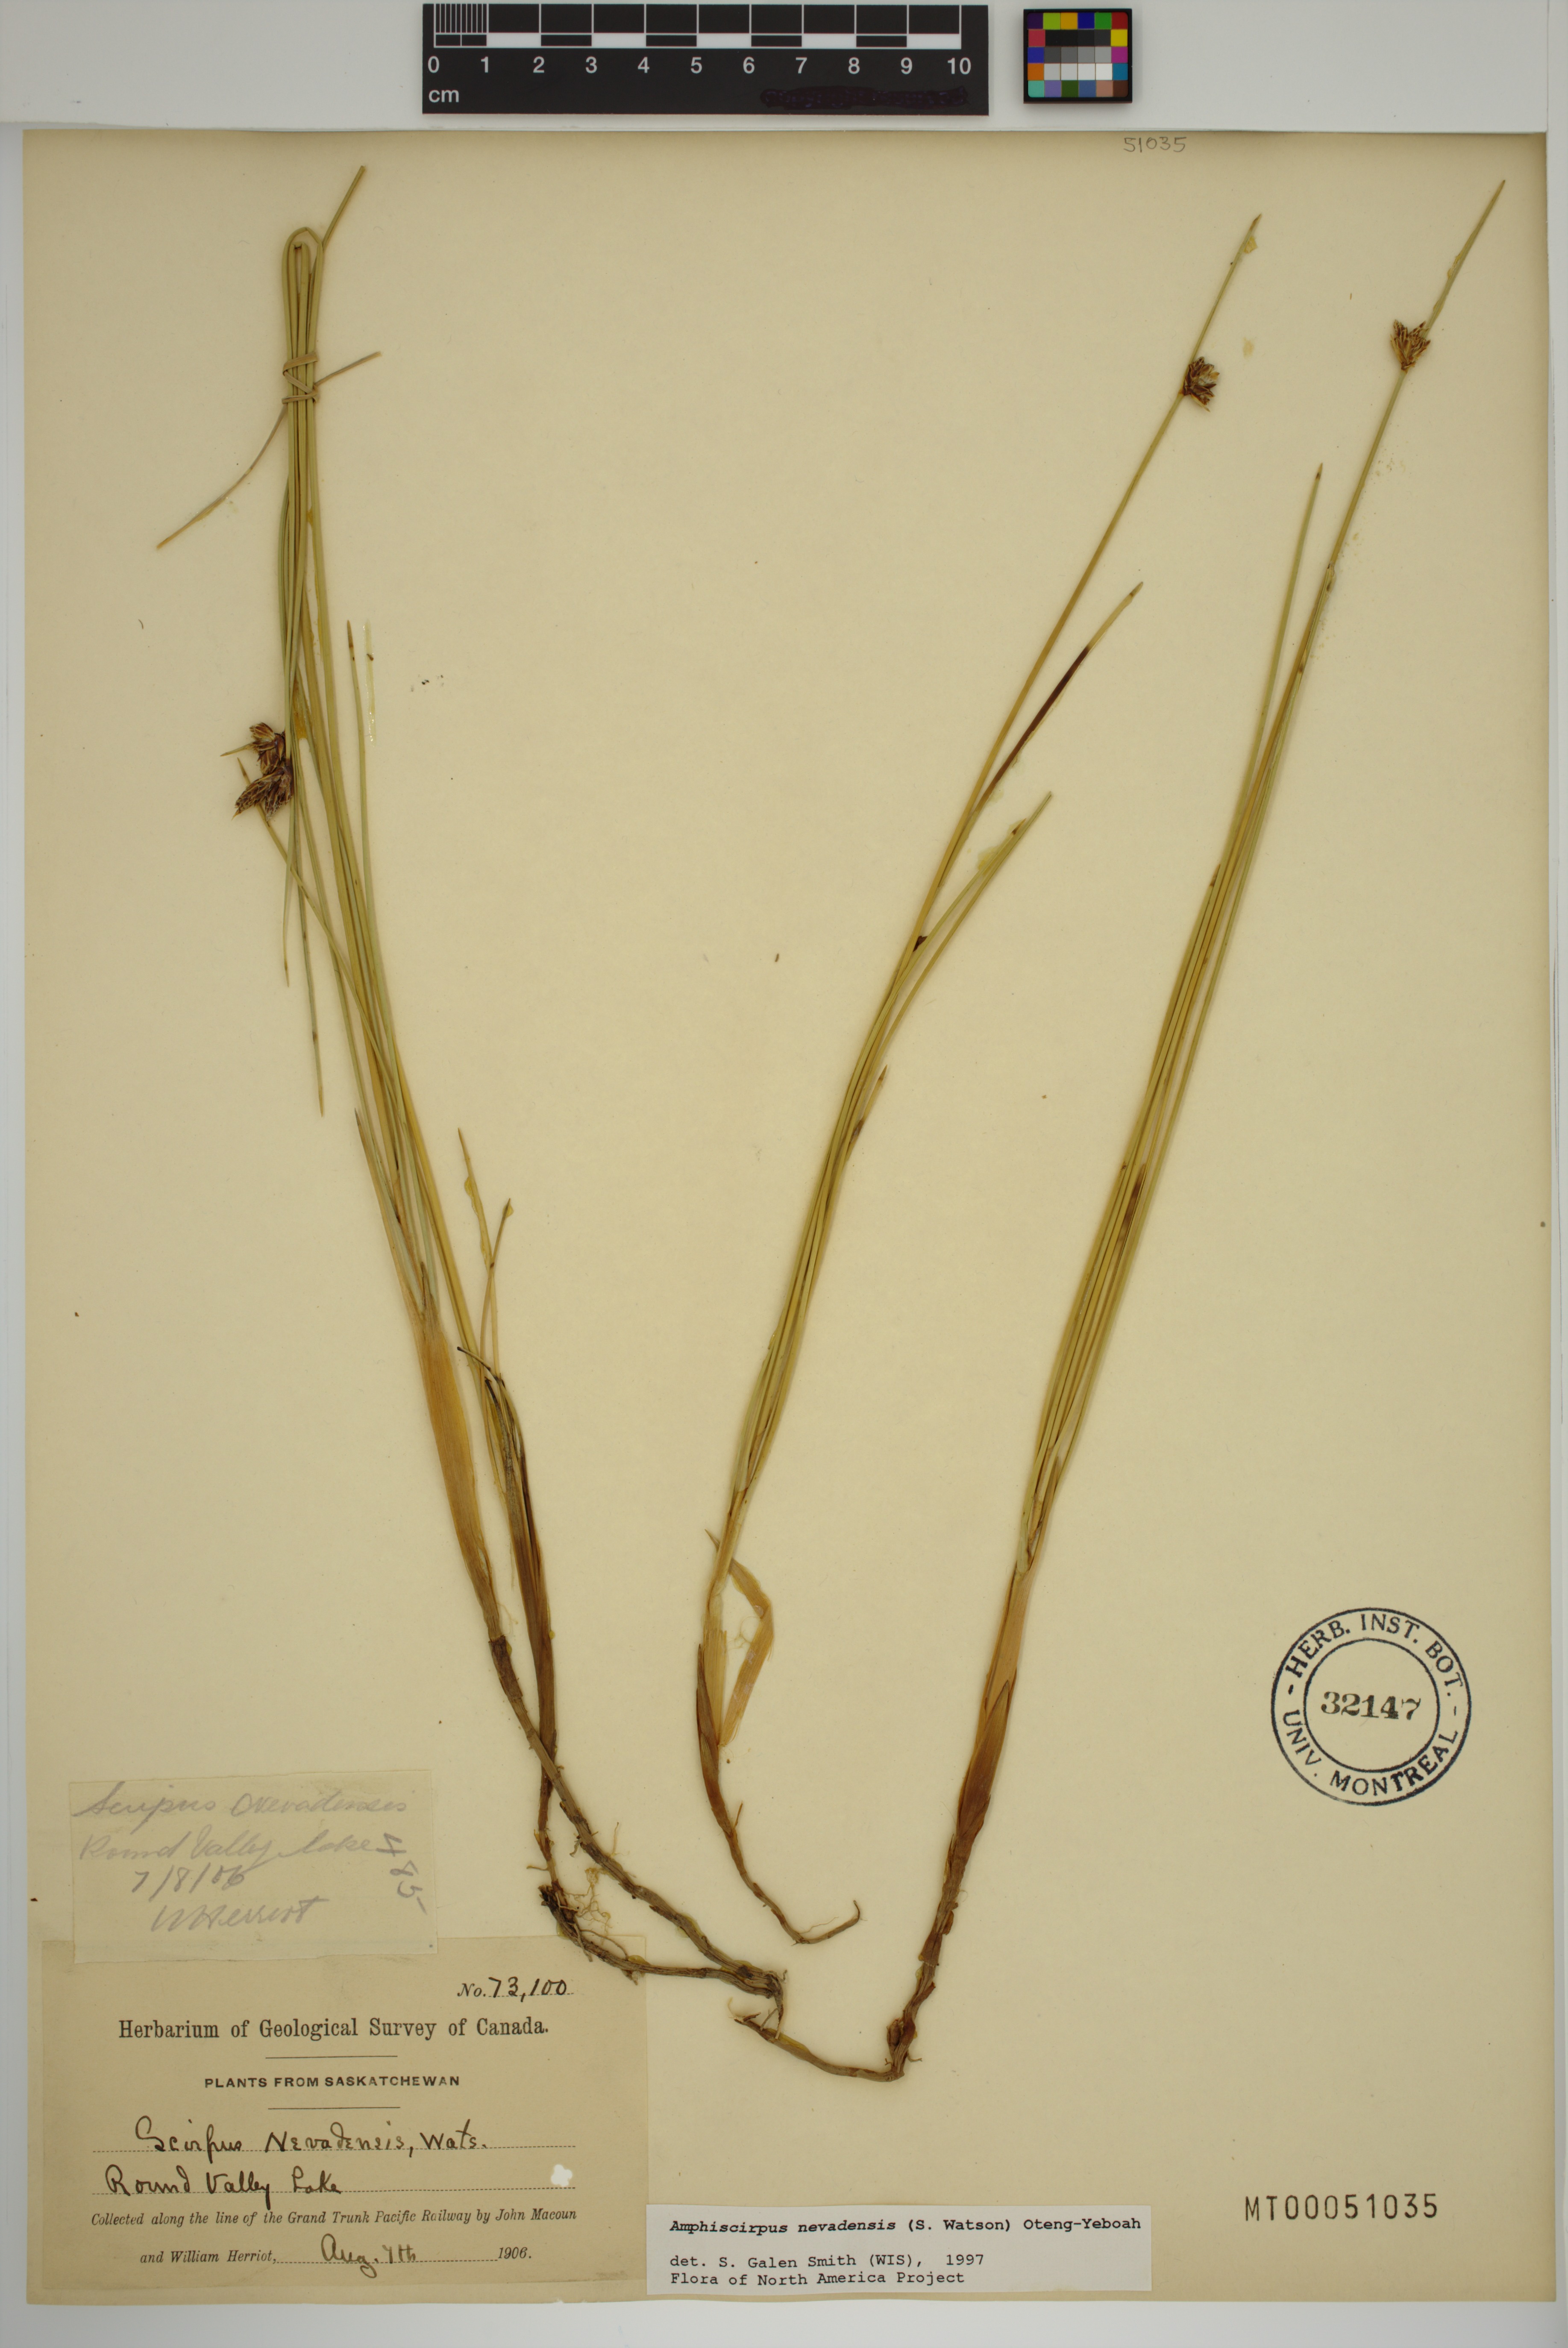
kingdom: Plantae
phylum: Tracheophyta
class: Liliopsida
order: Poales
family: Cyperaceae
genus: Amphiscirpus
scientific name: Amphiscirpus nevadensis
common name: Nevada bulrush
